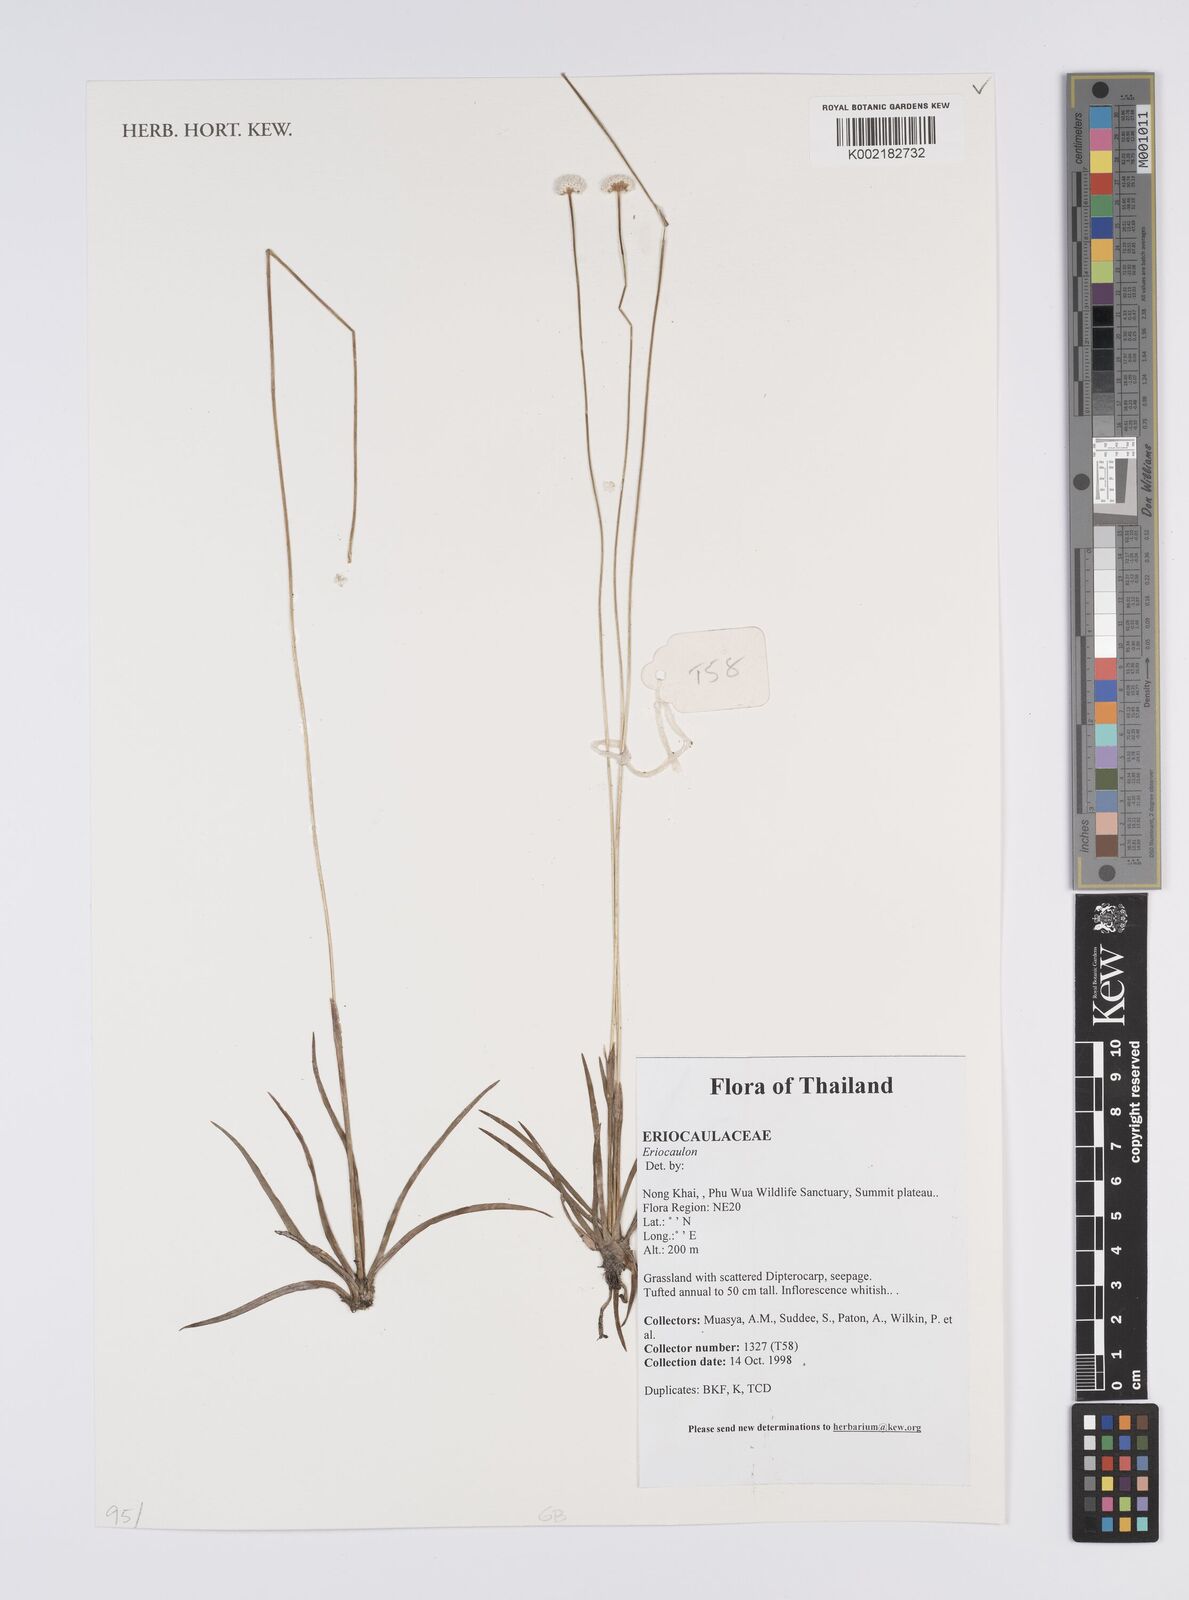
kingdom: Plantae
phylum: Tracheophyta
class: Liliopsida
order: Poales
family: Eriocaulaceae
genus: Eriocaulon
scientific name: Eriocaulon
